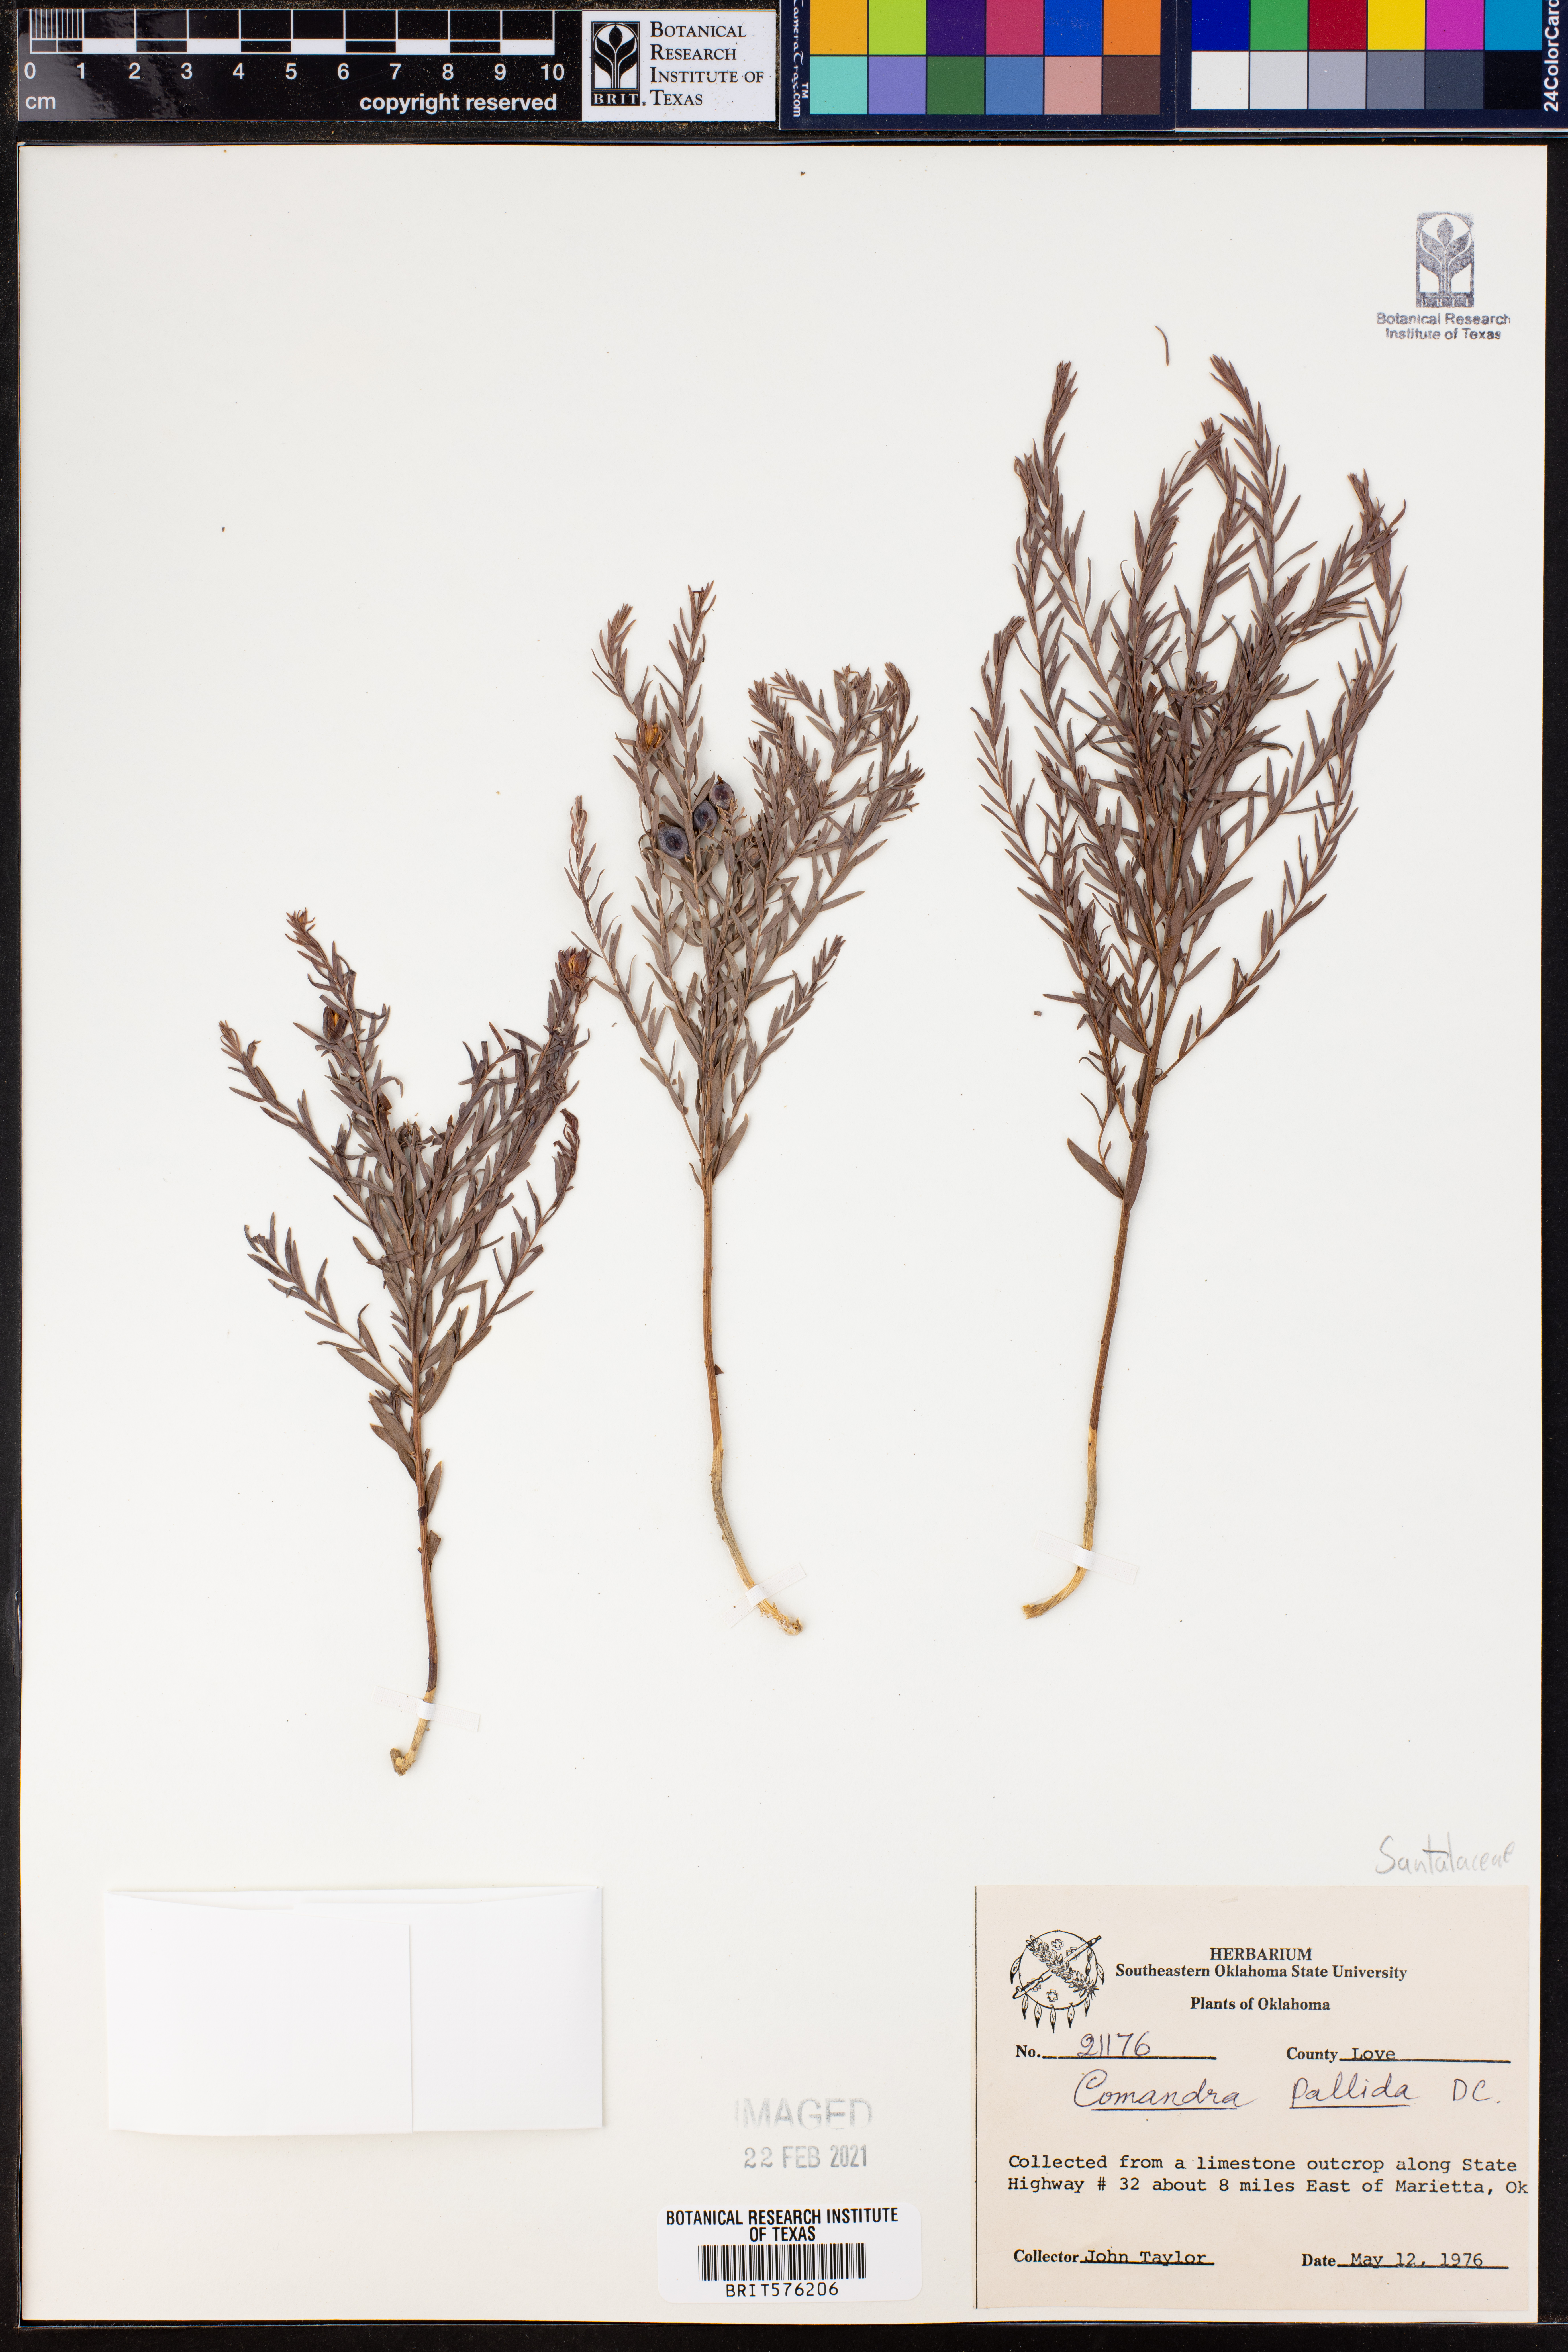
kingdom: Plantae
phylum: Tracheophyta
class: Magnoliopsida
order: Santalales
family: Comandraceae
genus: Comandra
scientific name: Comandra umbellata
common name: Bastard toadflax
